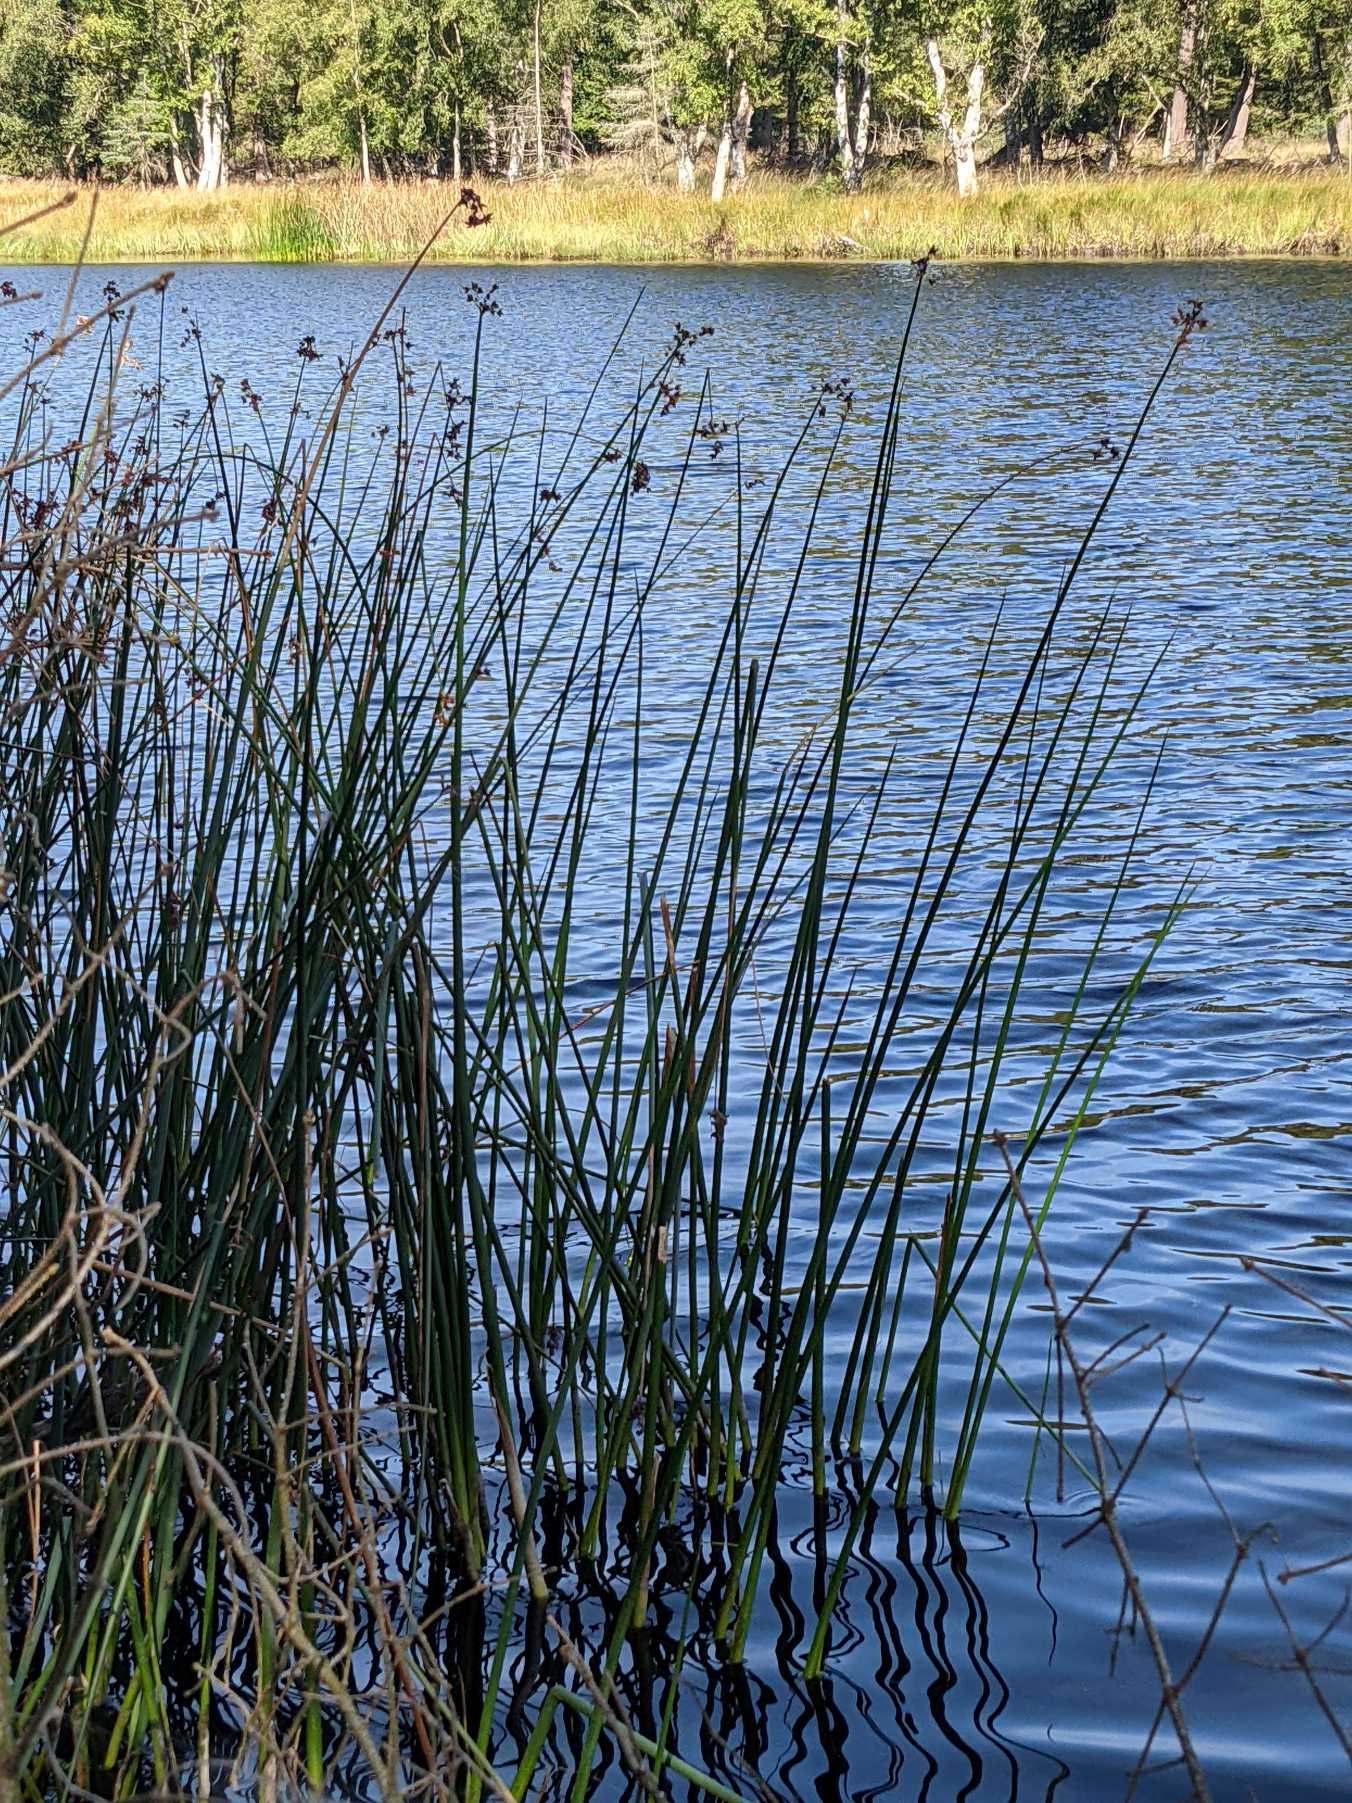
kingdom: Plantae
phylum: Tracheophyta
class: Liliopsida
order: Poales
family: Cyperaceae
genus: Schoenoplectus
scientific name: Schoenoplectus lacustris
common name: Sø-kogleaks
